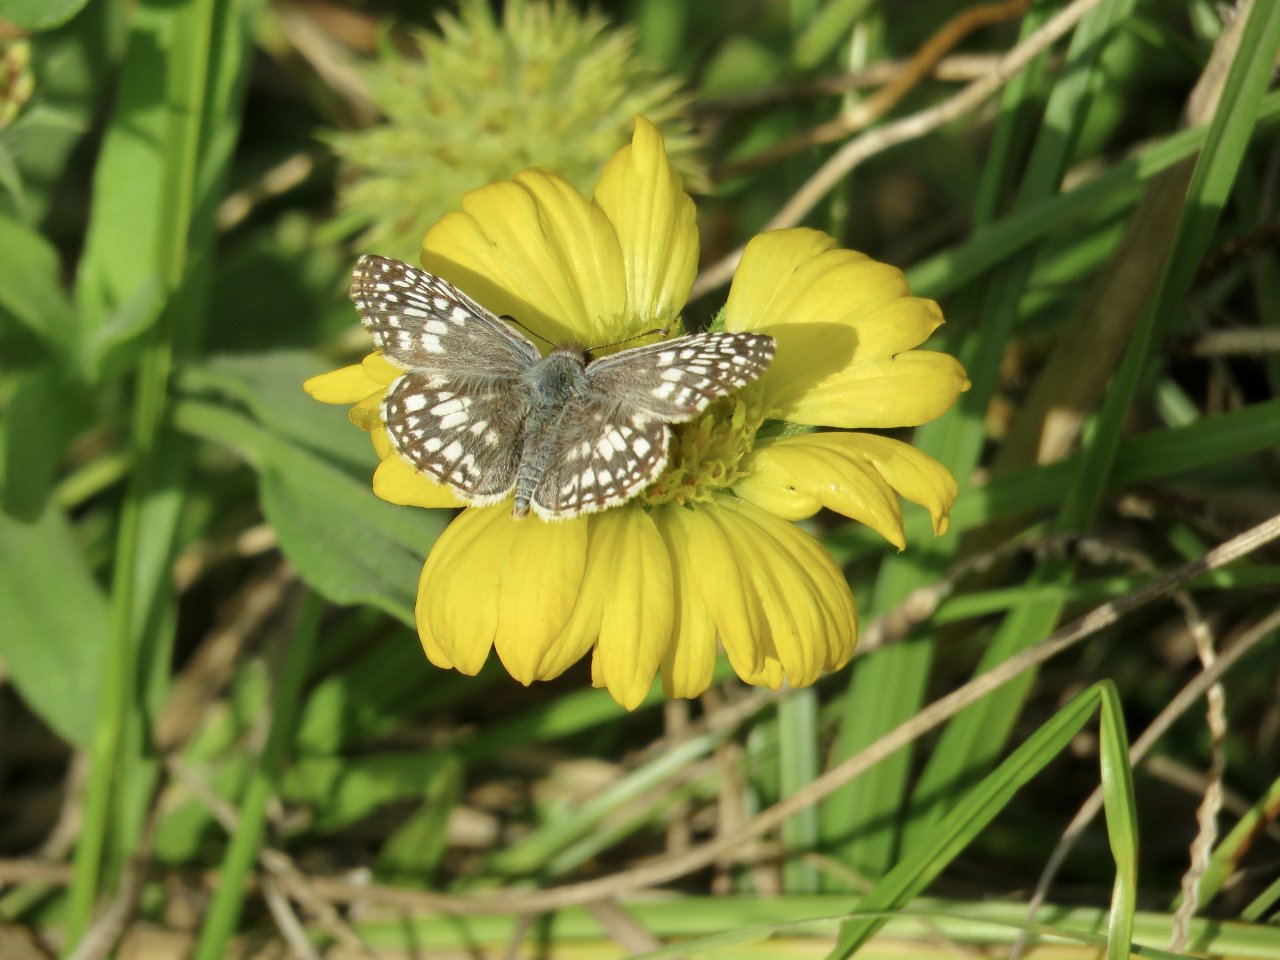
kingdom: Animalia
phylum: Arthropoda
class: Insecta
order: Lepidoptera
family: Hesperiidae
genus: Pyrgus
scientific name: Pyrgus oileus
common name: Tropical Checkered-Skipper
